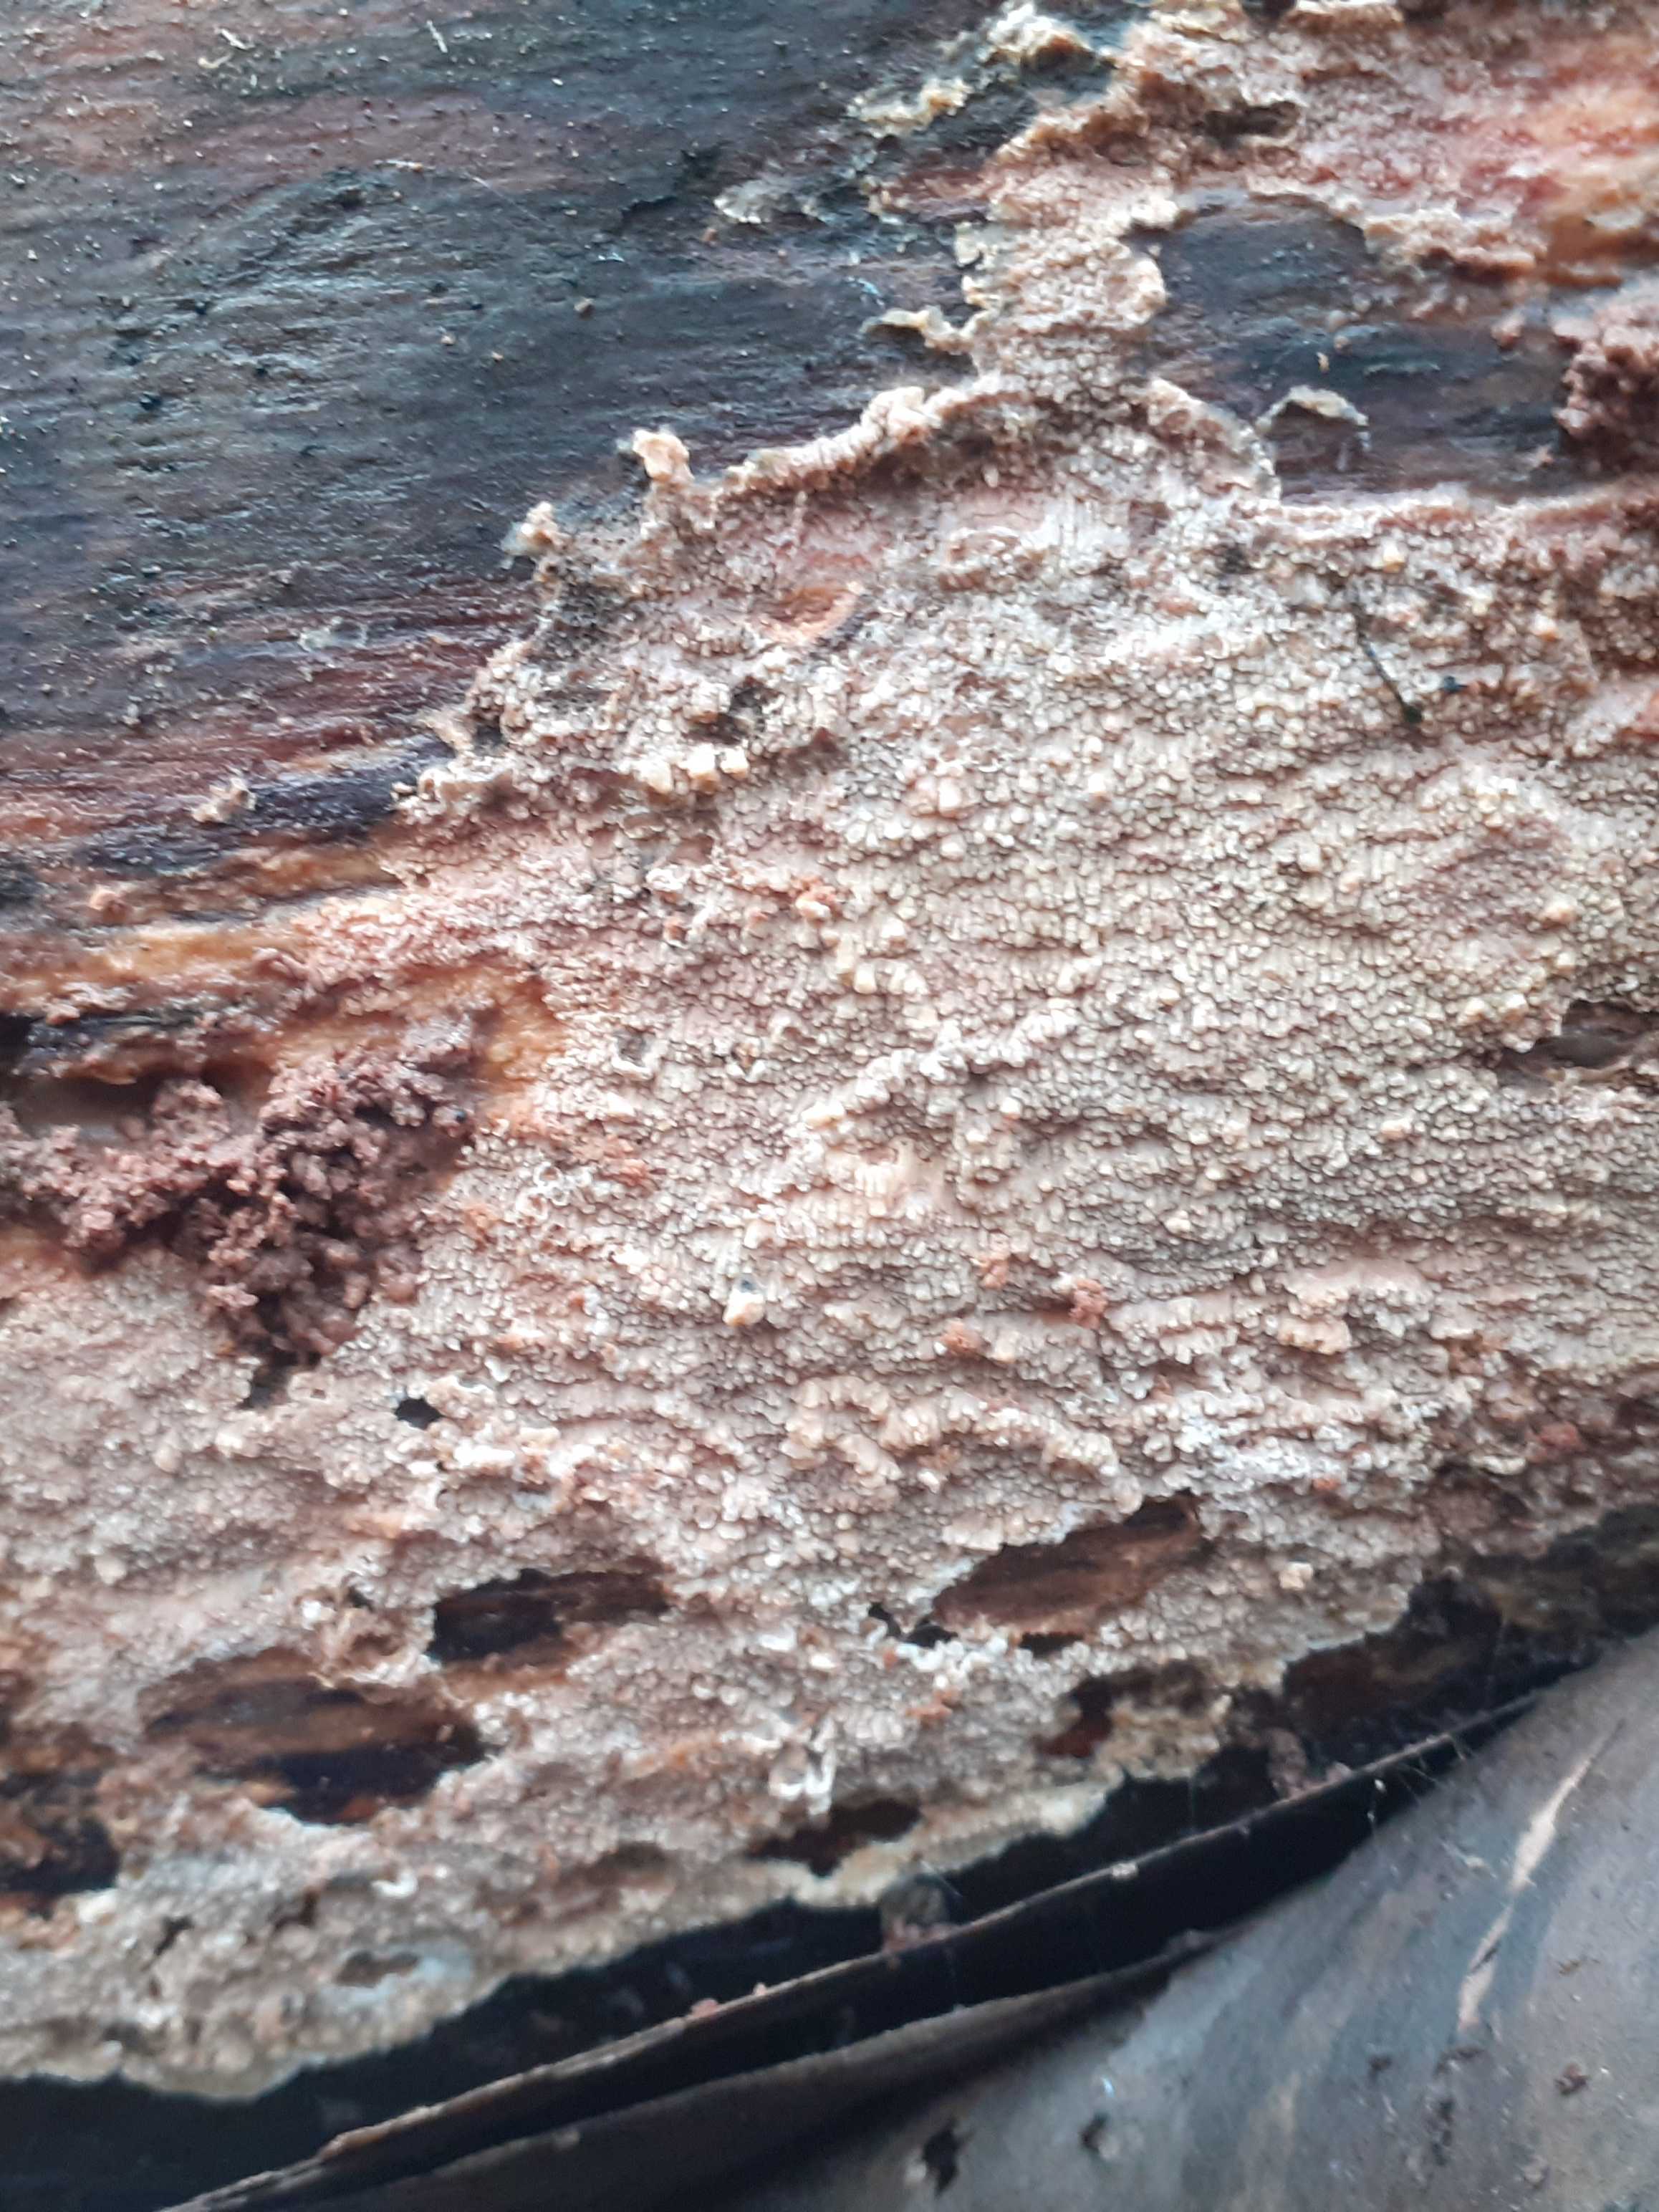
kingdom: Fungi
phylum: Basidiomycota
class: Agaricomycetes
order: Polyporales
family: Meruliaceae
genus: Phlebia
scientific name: Phlebia rufa
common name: ege-åresvamp
